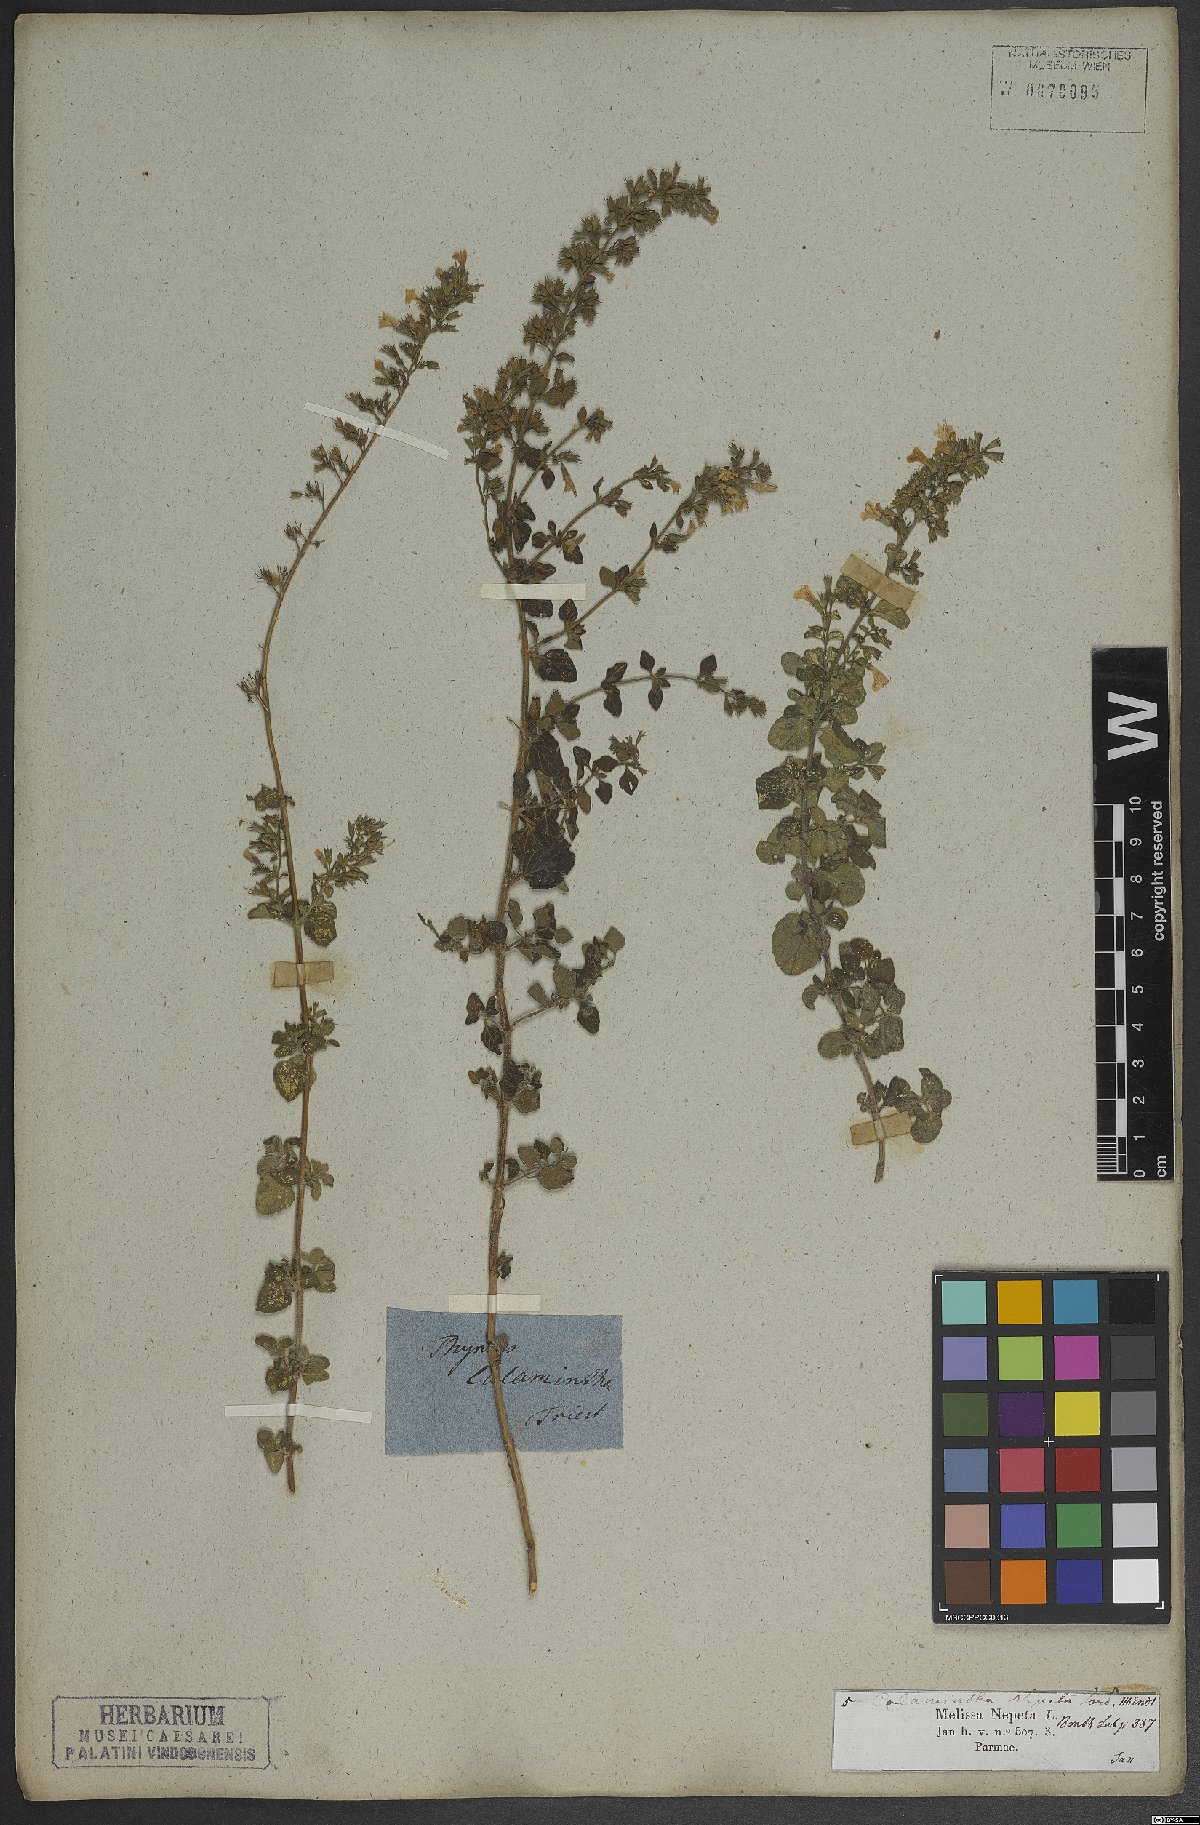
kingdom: Plantae
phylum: Tracheophyta
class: Magnoliopsida
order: Lamiales
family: Lamiaceae
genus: Clinopodium
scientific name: Clinopodium nepeta
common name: Lesser calamint
